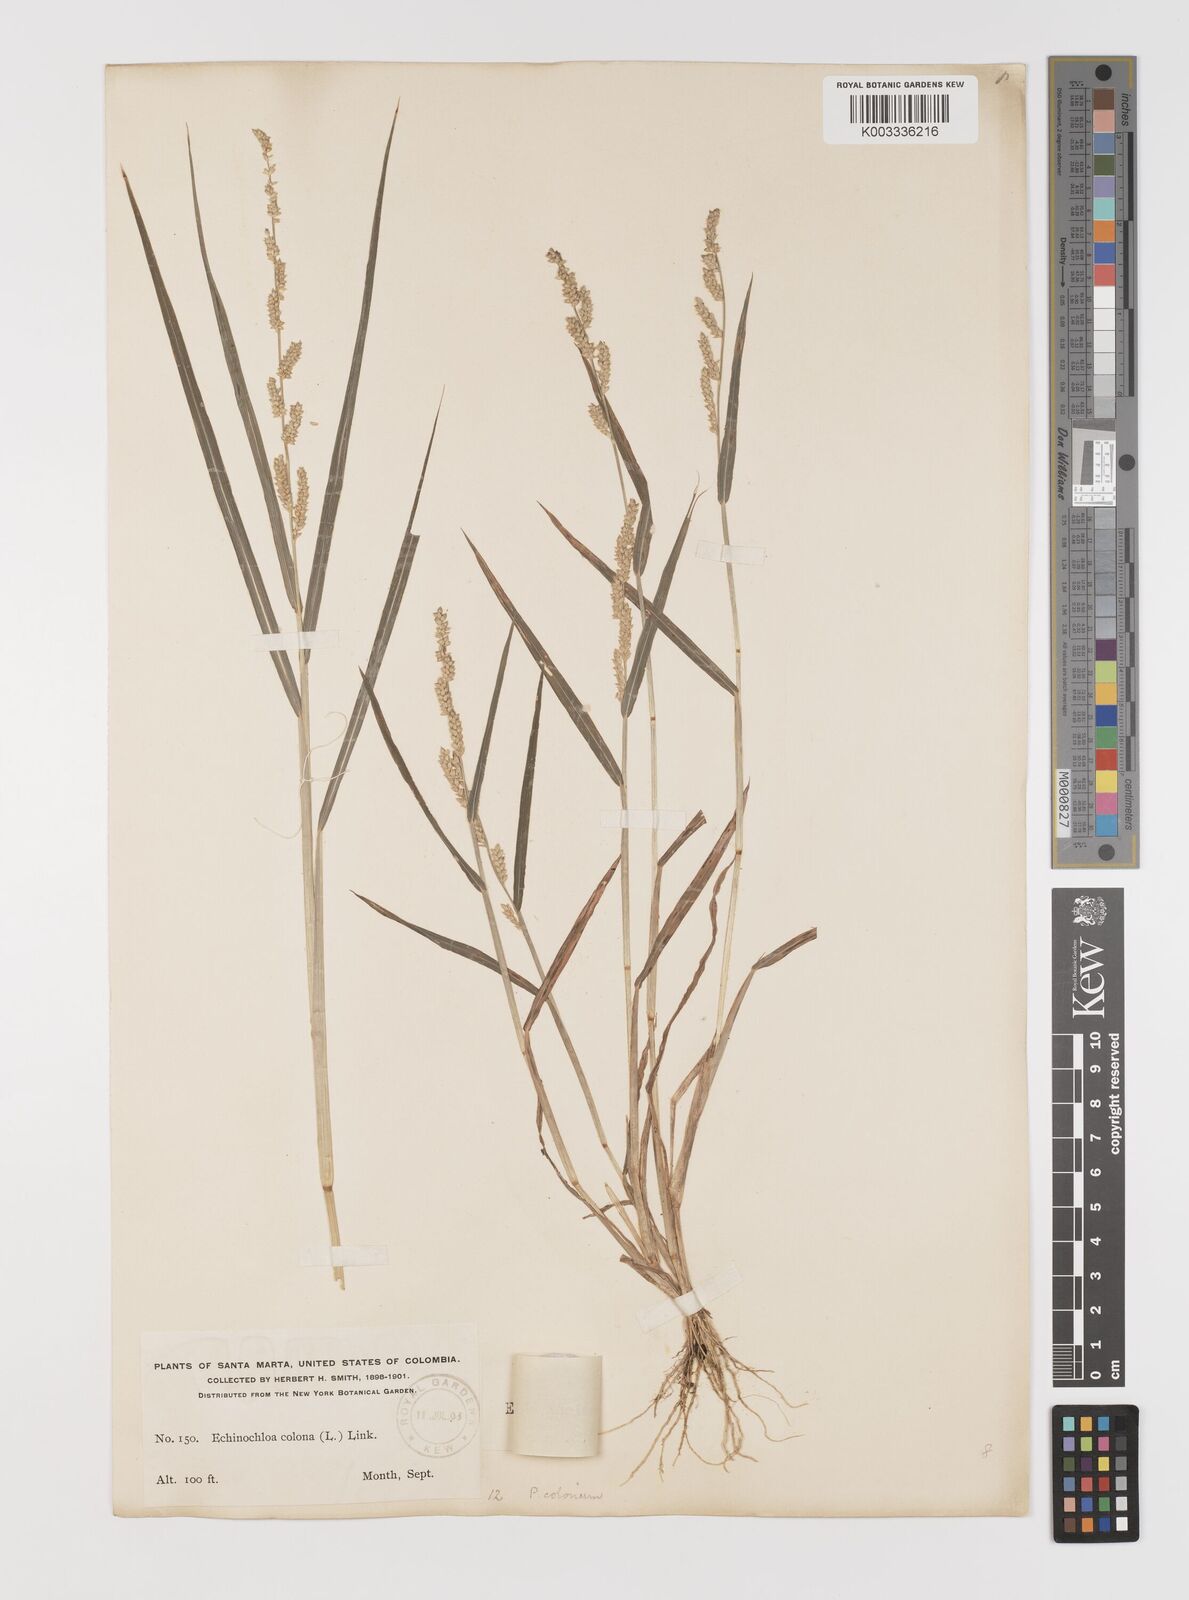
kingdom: Plantae
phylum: Tracheophyta
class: Liliopsida
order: Poales
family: Poaceae
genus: Echinochloa
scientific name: Echinochloa colonum
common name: Jungle rice
